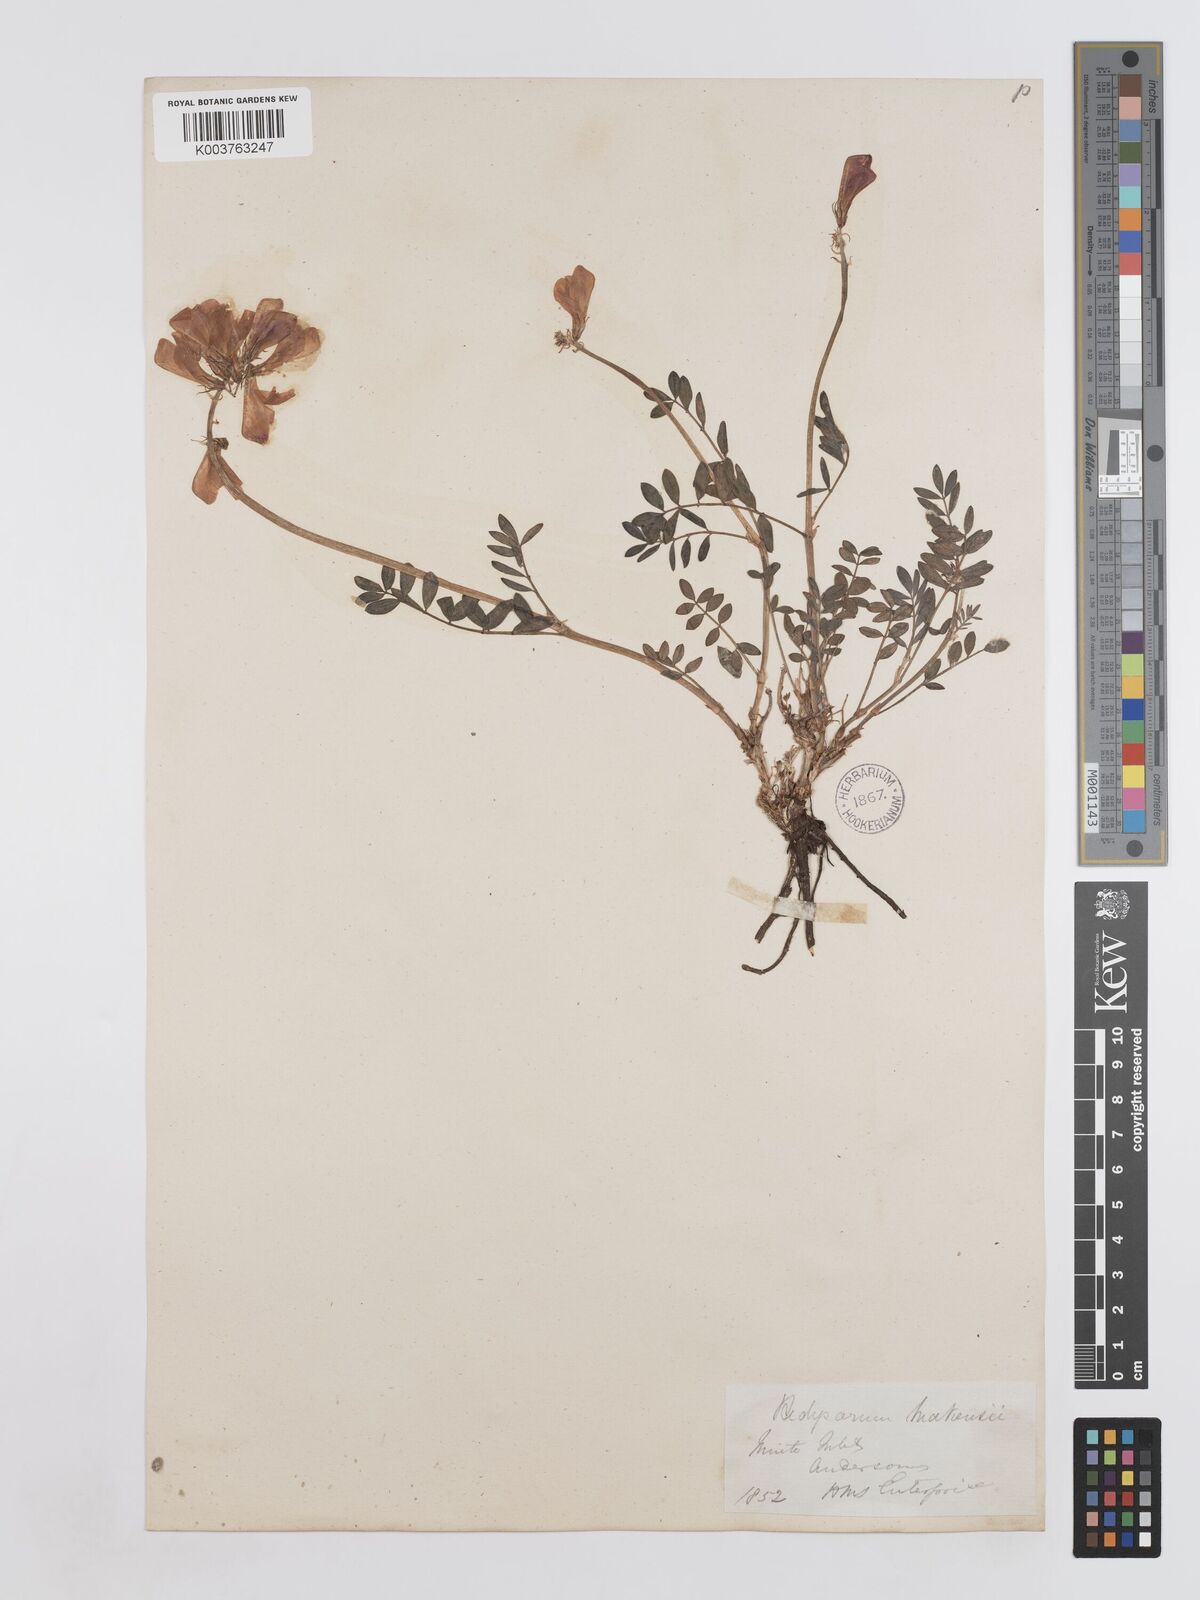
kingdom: Plantae
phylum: Tracheophyta
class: Magnoliopsida
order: Fabales
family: Fabaceae
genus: Hedysarum
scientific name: Hedysarum boreale
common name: Northern sweet-vetch
